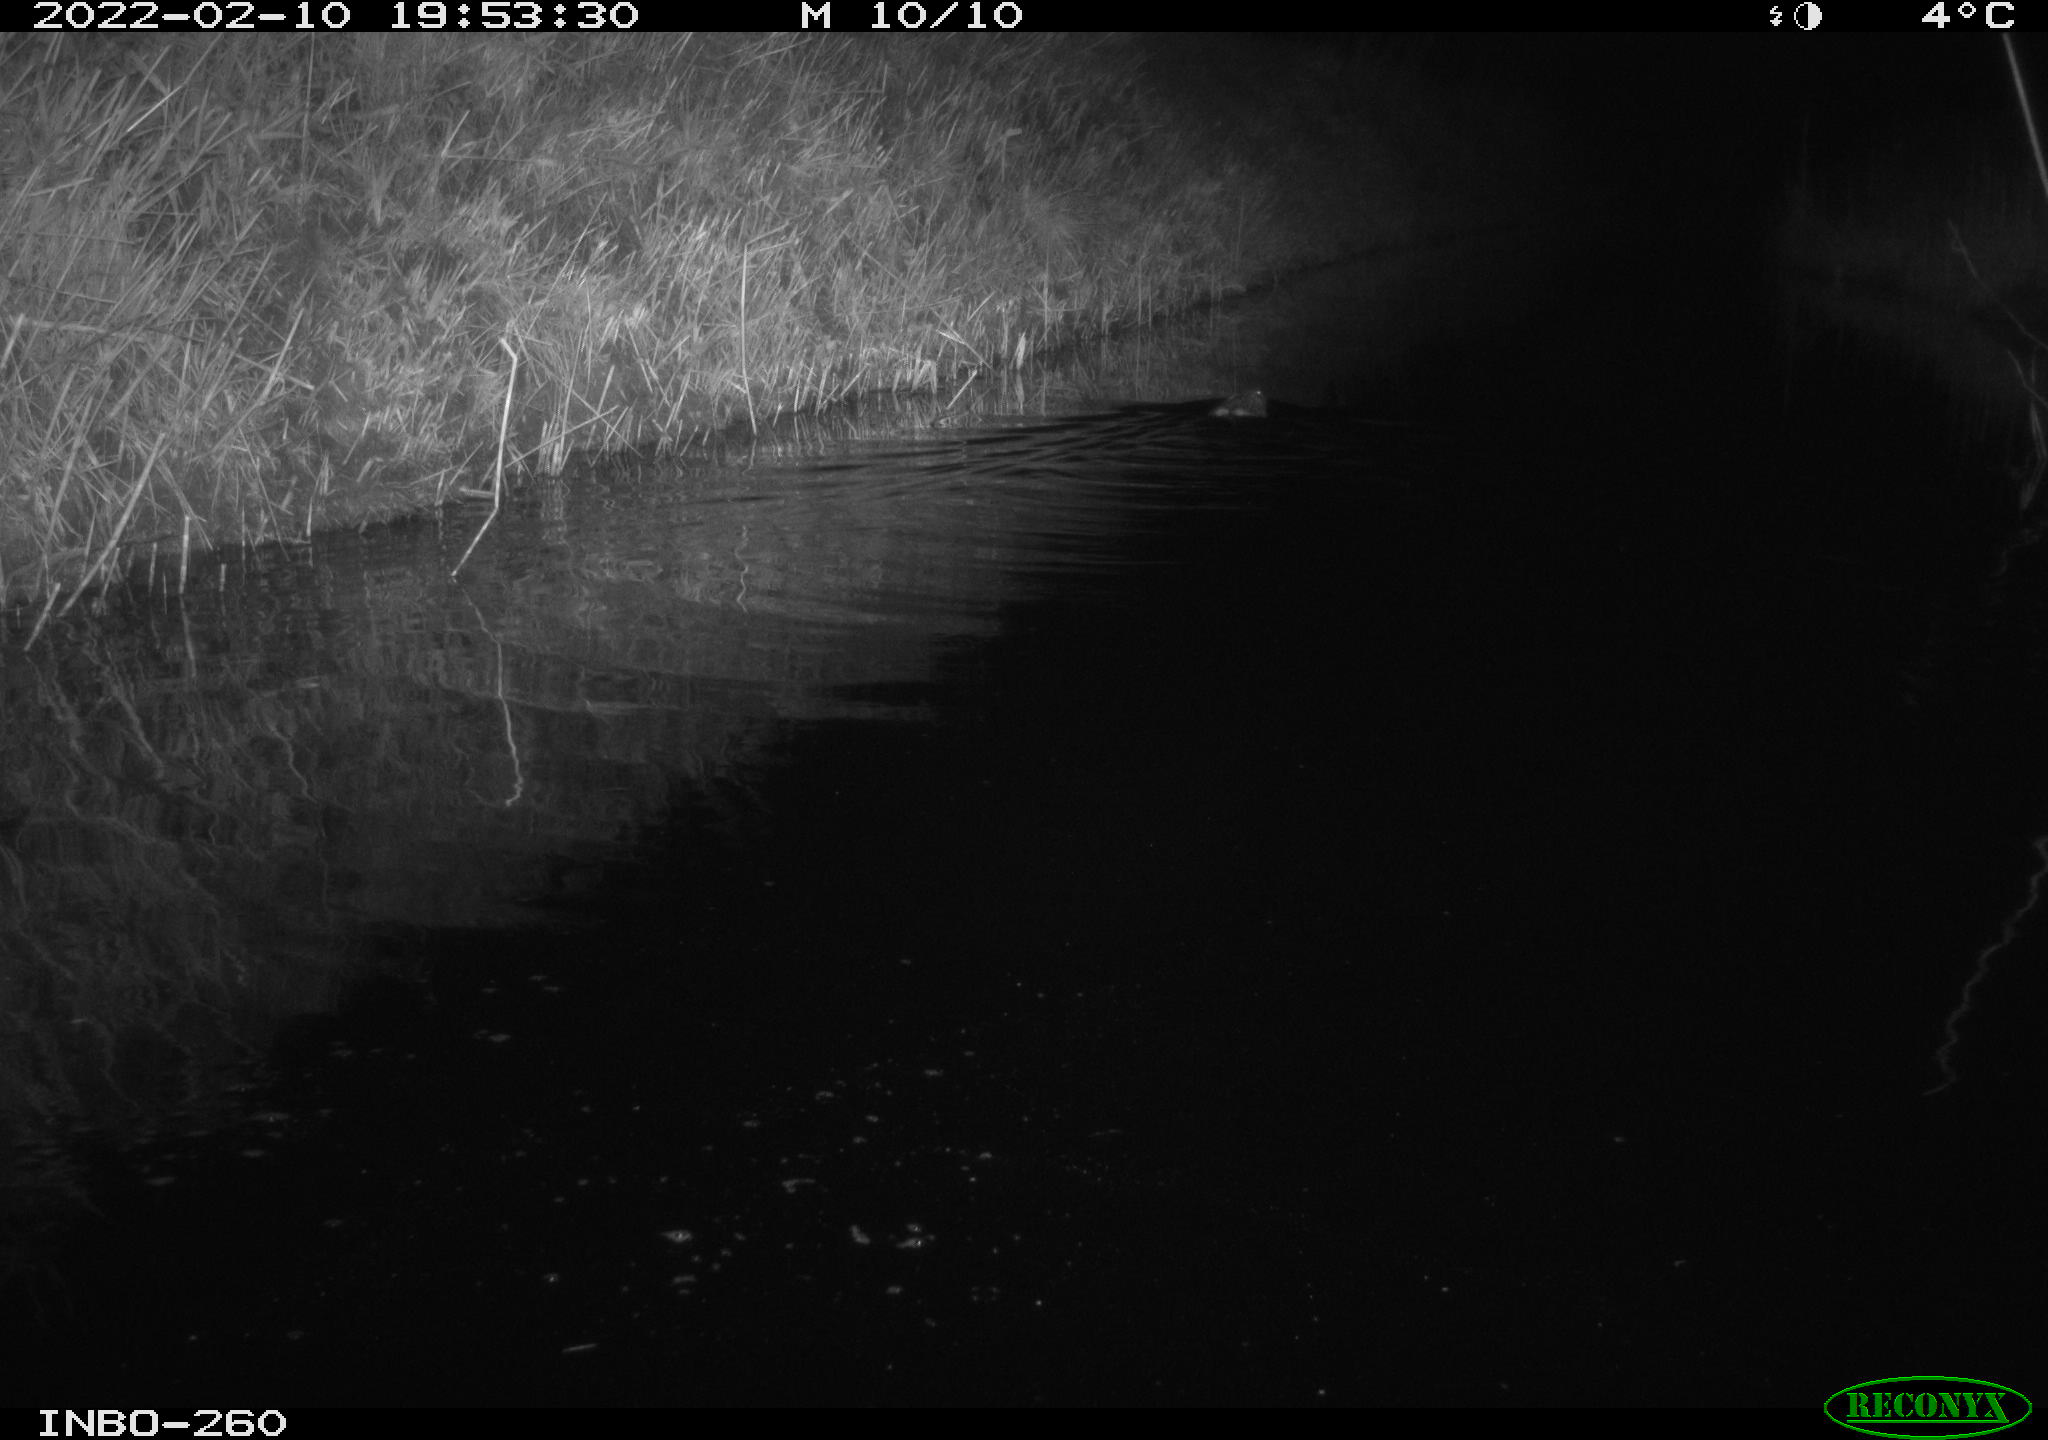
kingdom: Animalia
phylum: Chordata
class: Mammalia
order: Rodentia
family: Cricetidae
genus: Ondatra
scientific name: Ondatra zibethicus
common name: Muskrat
